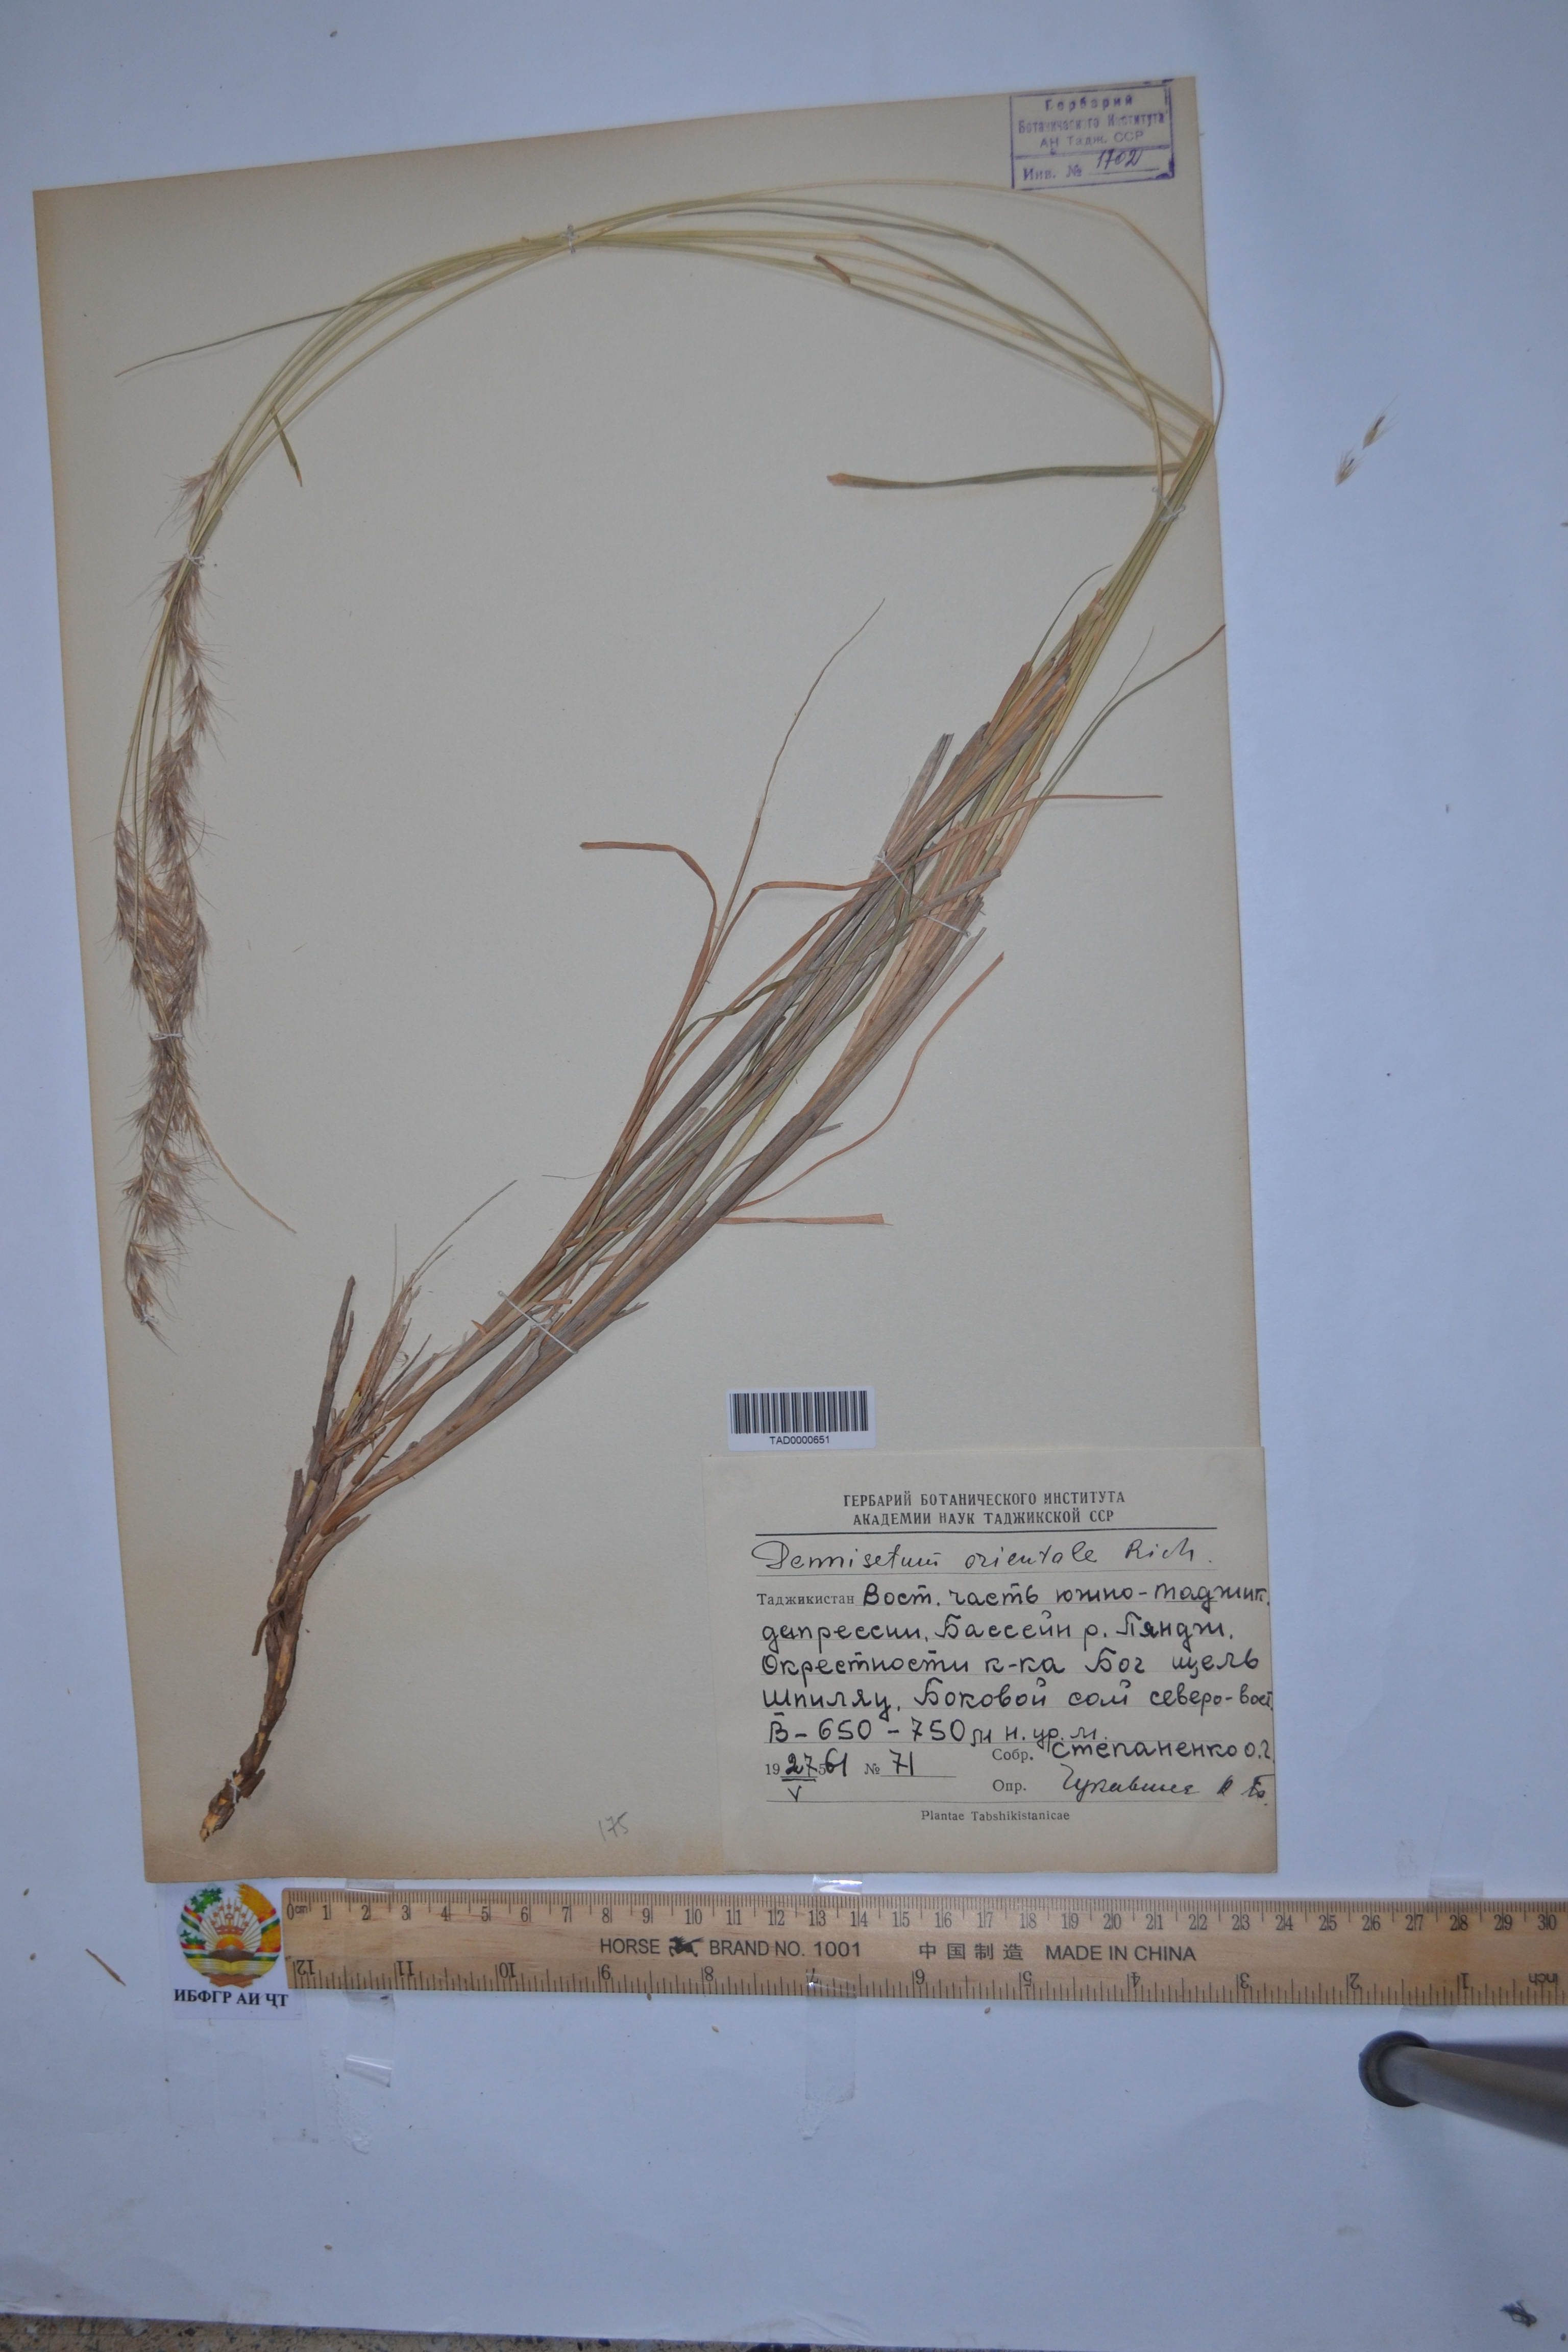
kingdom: Plantae
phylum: Tracheophyta
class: Liliopsida
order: Poales
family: Poaceae
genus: Cenchrus
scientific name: Cenchrus flaccidus
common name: Flaccid grass
